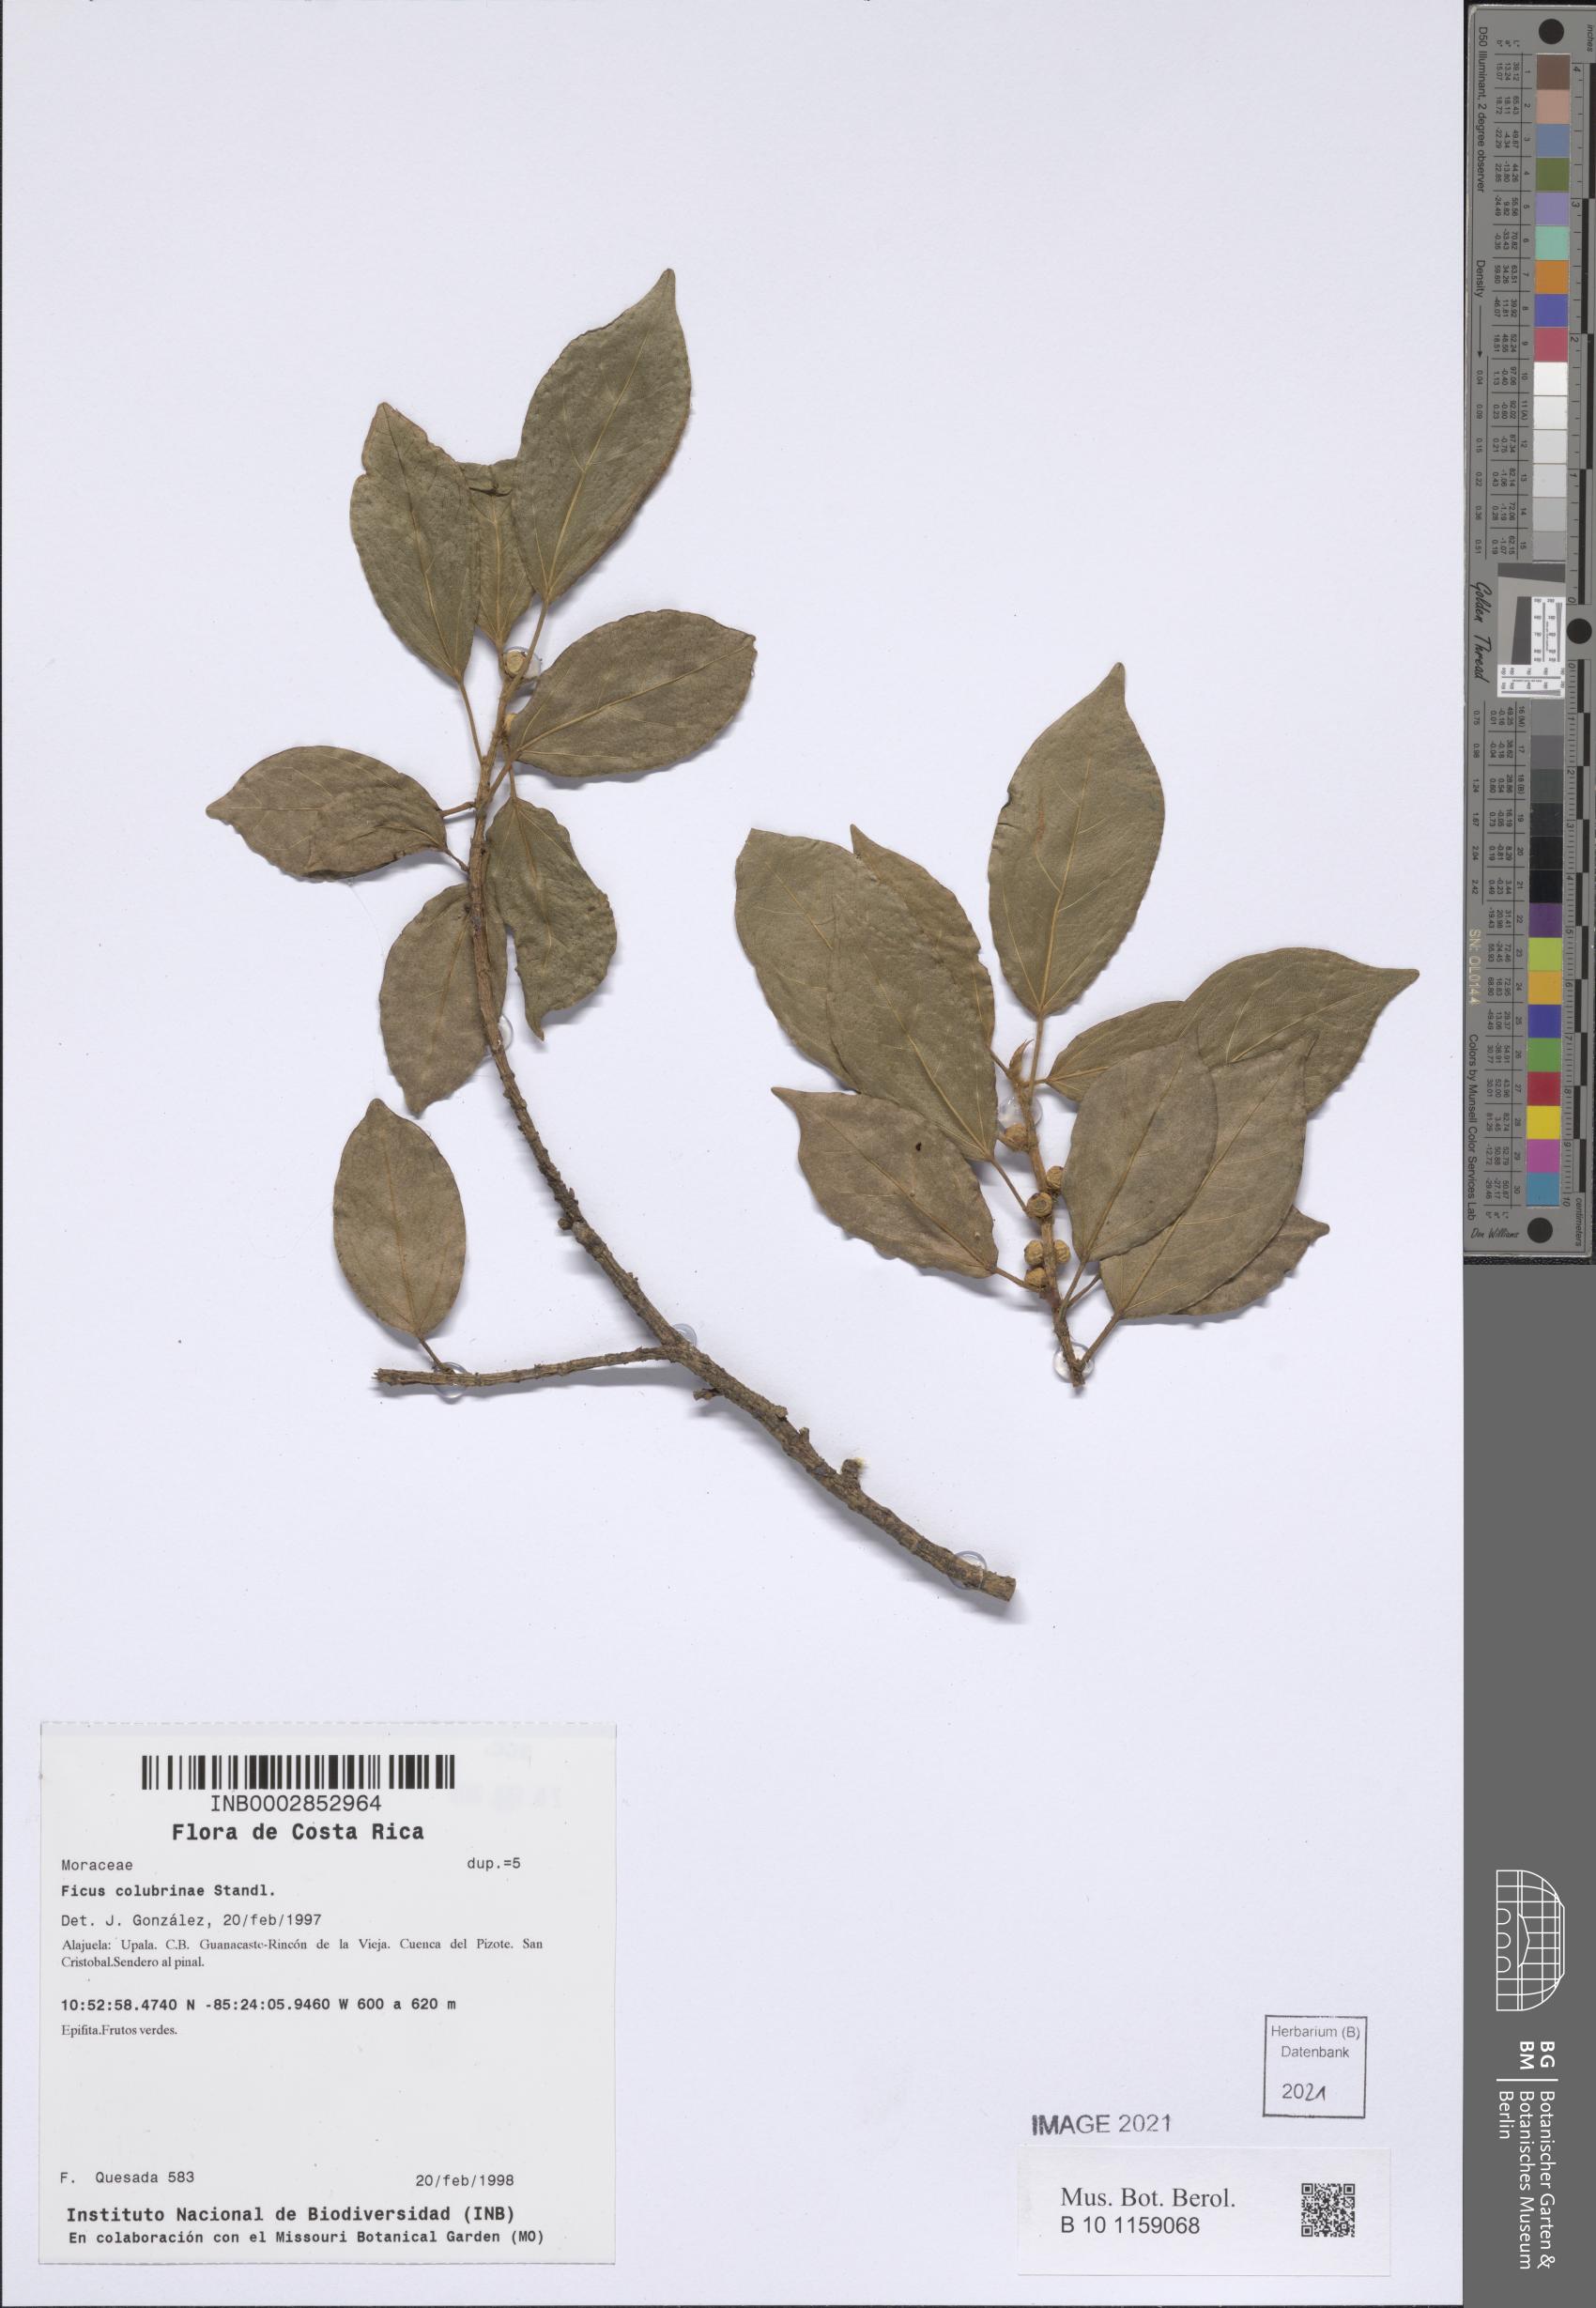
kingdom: Plantae
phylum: Tracheophyta
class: Magnoliopsida
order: Rosales
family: Moraceae
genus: Ficus
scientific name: Ficus colubrinae
